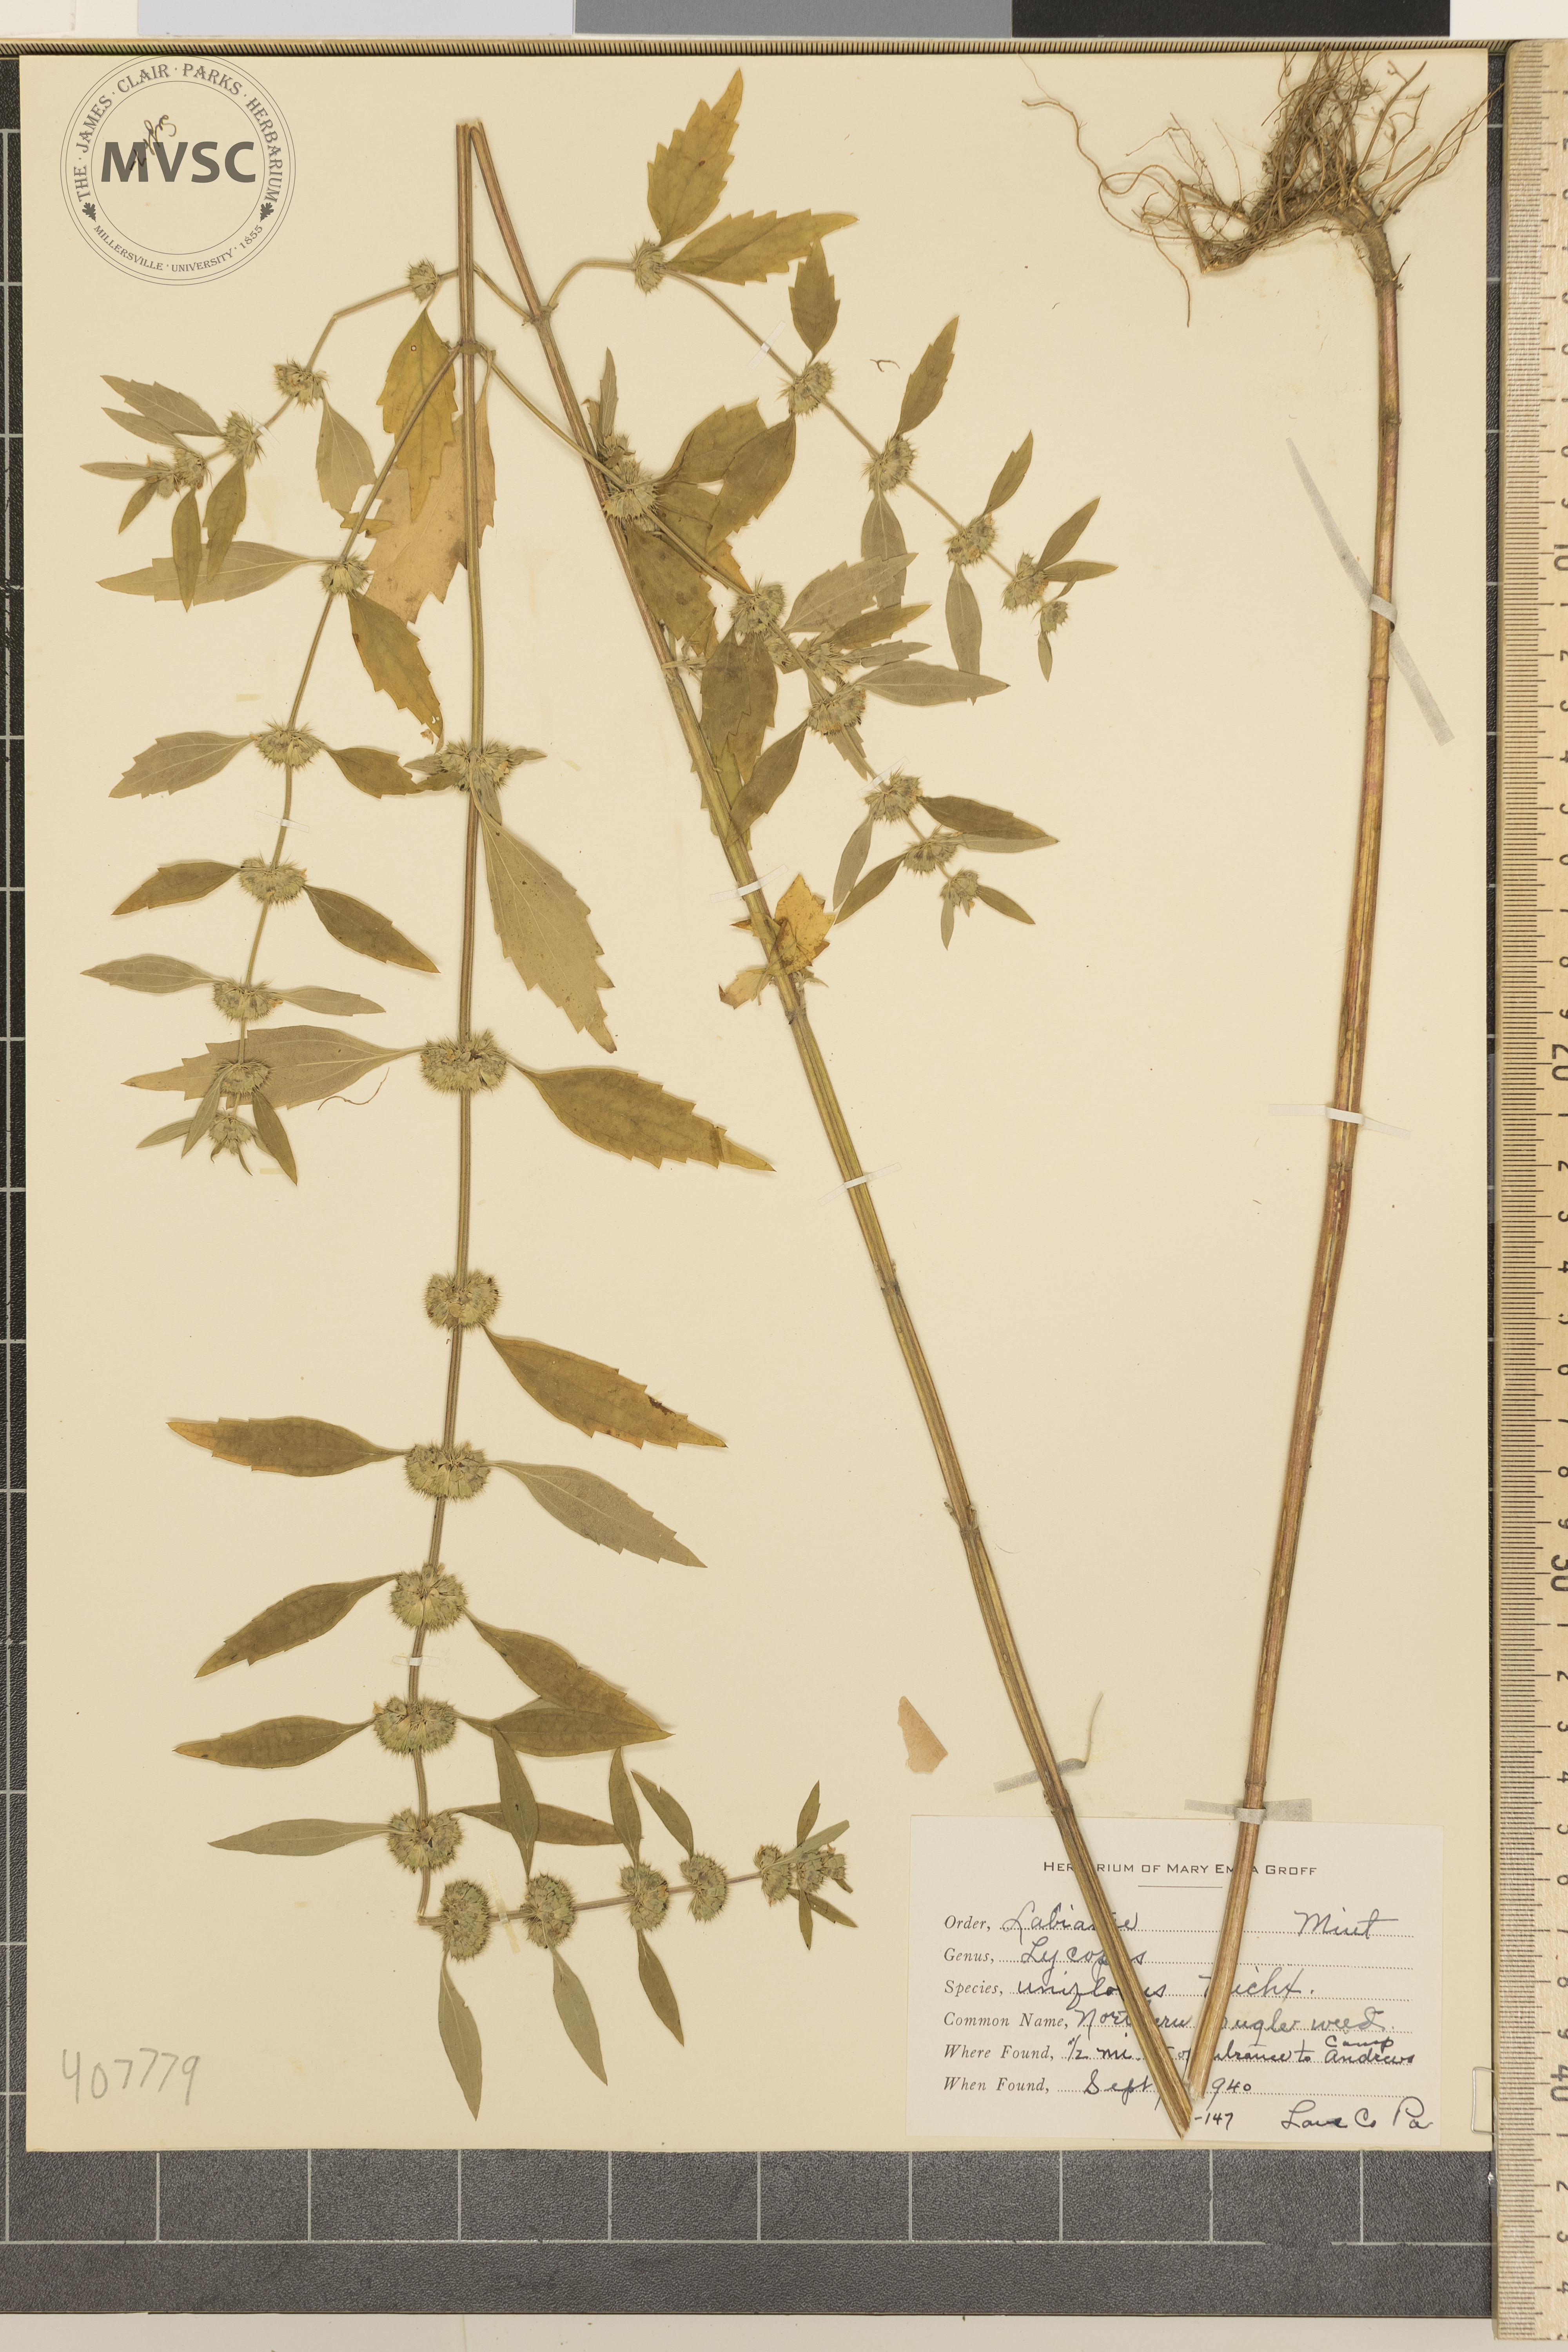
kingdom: Plantae
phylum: Tracheophyta
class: Magnoliopsida
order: Lamiales
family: Lamiaceae
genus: Lycopus
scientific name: Lycopus uniflorus
